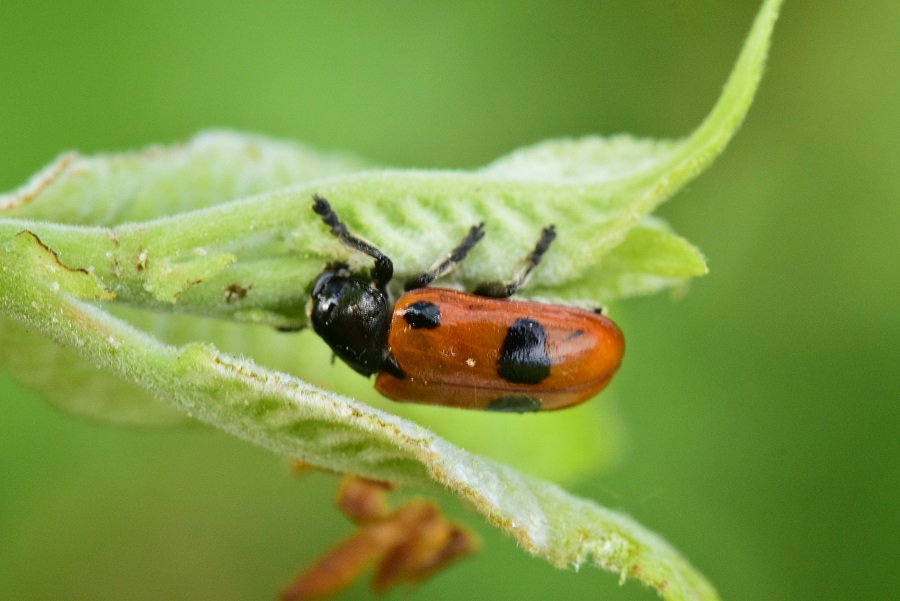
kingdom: Animalia
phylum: Arthropoda
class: Insecta
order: Coleoptera
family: Chrysomelidae
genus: Clytra
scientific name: Clytra quadripunctata
